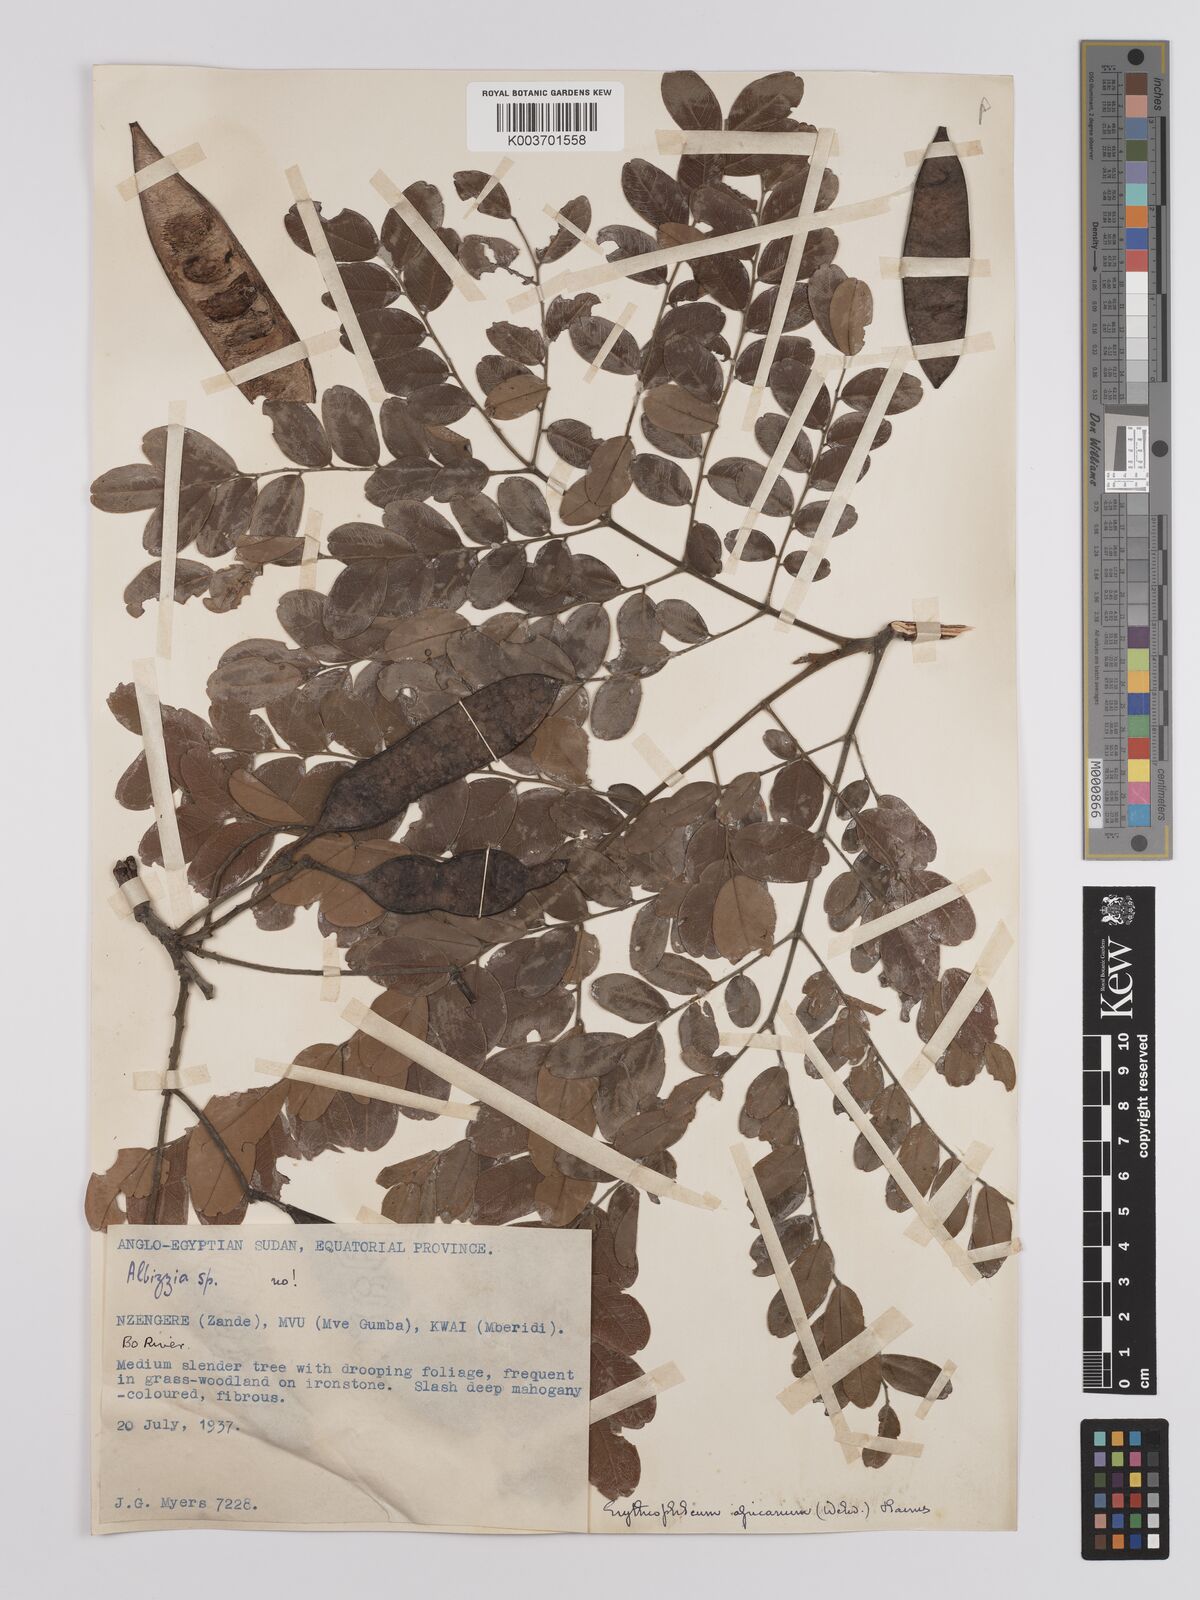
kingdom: Plantae
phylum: Tracheophyta
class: Magnoliopsida
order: Fabales
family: Fabaceae
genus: Erythrophleum
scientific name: Erythrophleum africanum
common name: African blackwood
